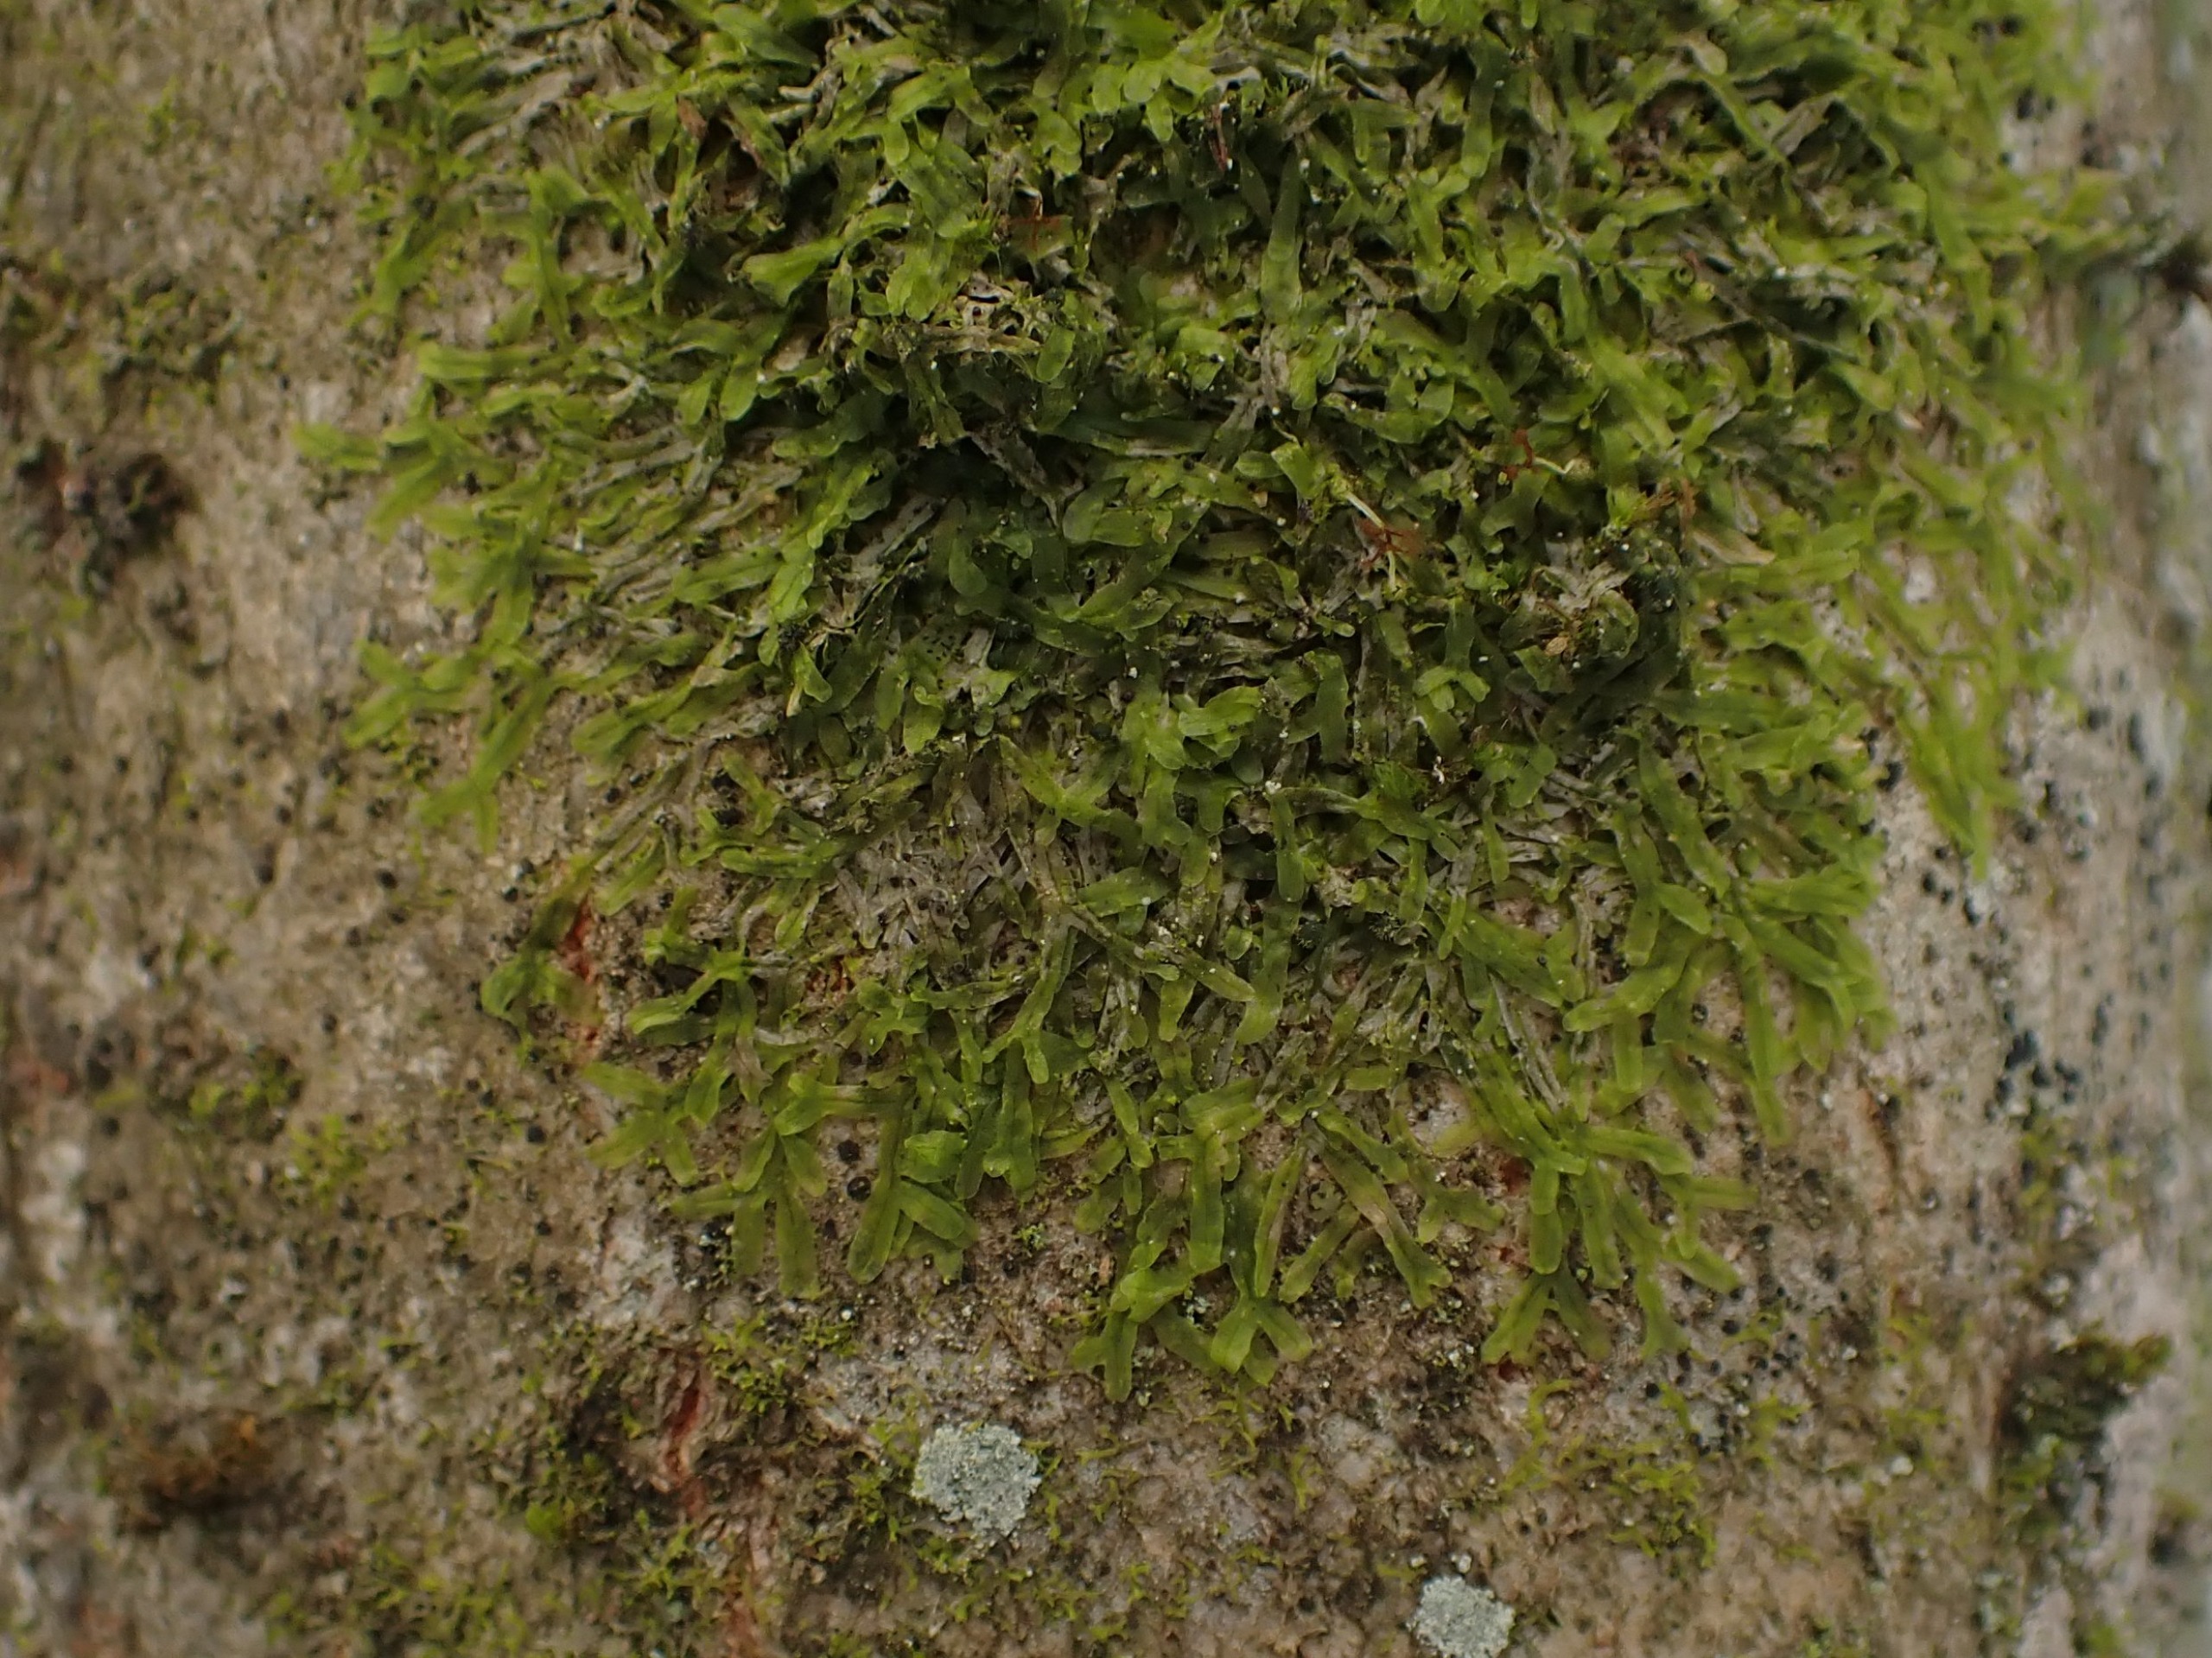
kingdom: Plantae
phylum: Marchantiophyta
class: Jungermanniopsida
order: Metzgeriales
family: Metzgeriaceae
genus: Metzgeria
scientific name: Metzgeria furcata
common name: Almindelig gaffelløv
